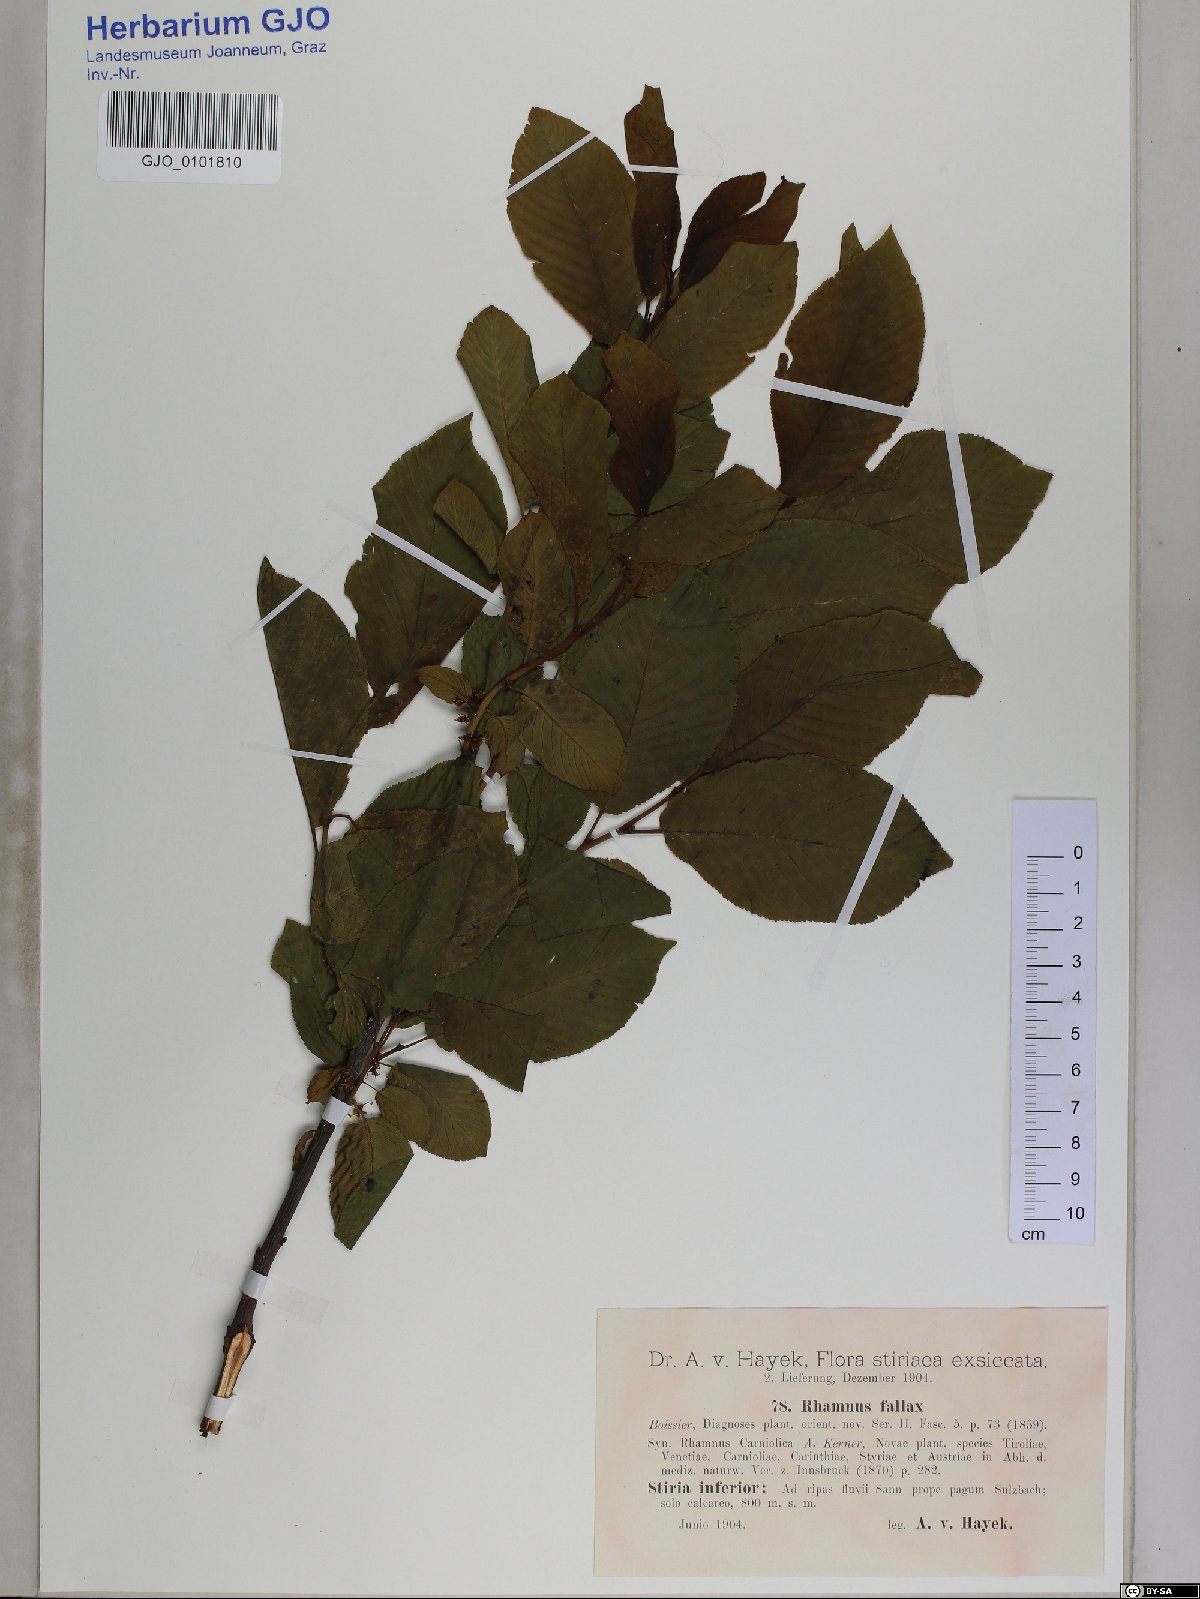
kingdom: Plantae
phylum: Tracheophyta
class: Magnoliopsida
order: Rosales
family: Rhamnaceae
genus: Atadinus
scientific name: Atadinus fallax
